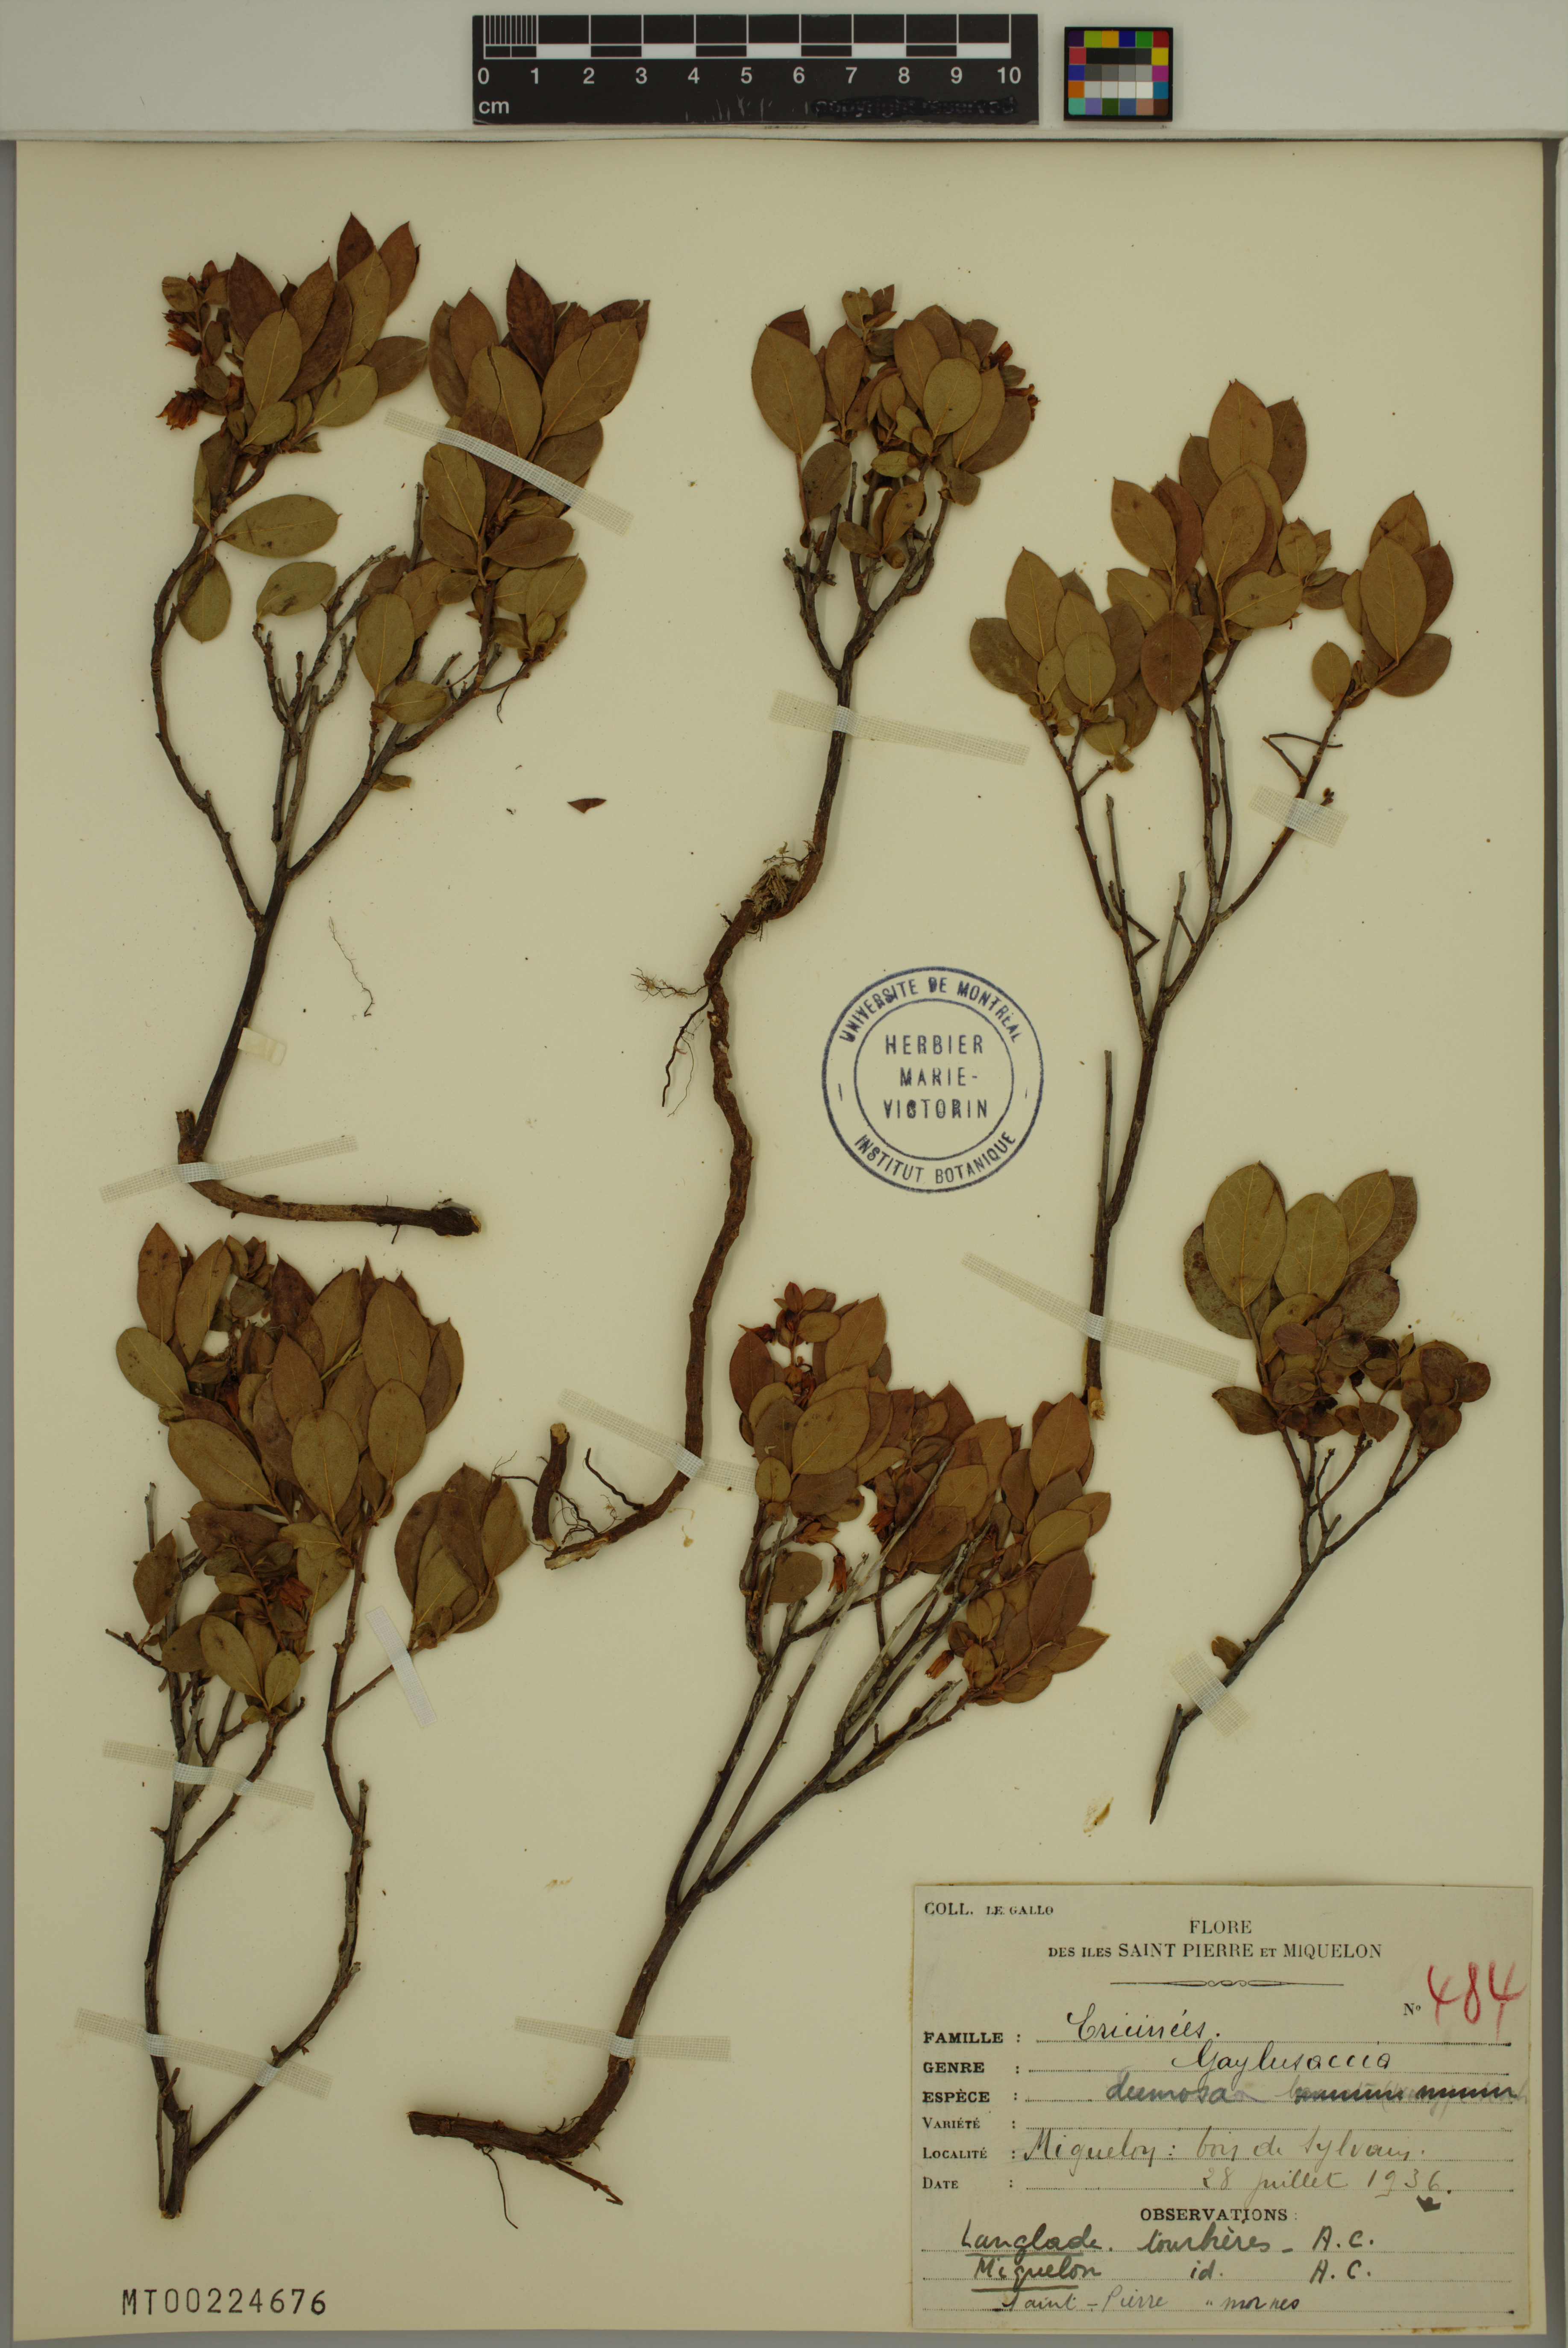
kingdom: Plantae
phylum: Tracheophyta
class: Magnoliopsida
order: Ericales
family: Ericaceae
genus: Gaylussacia
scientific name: Gaylussacia dumosa
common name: Dwarf huckleberry
